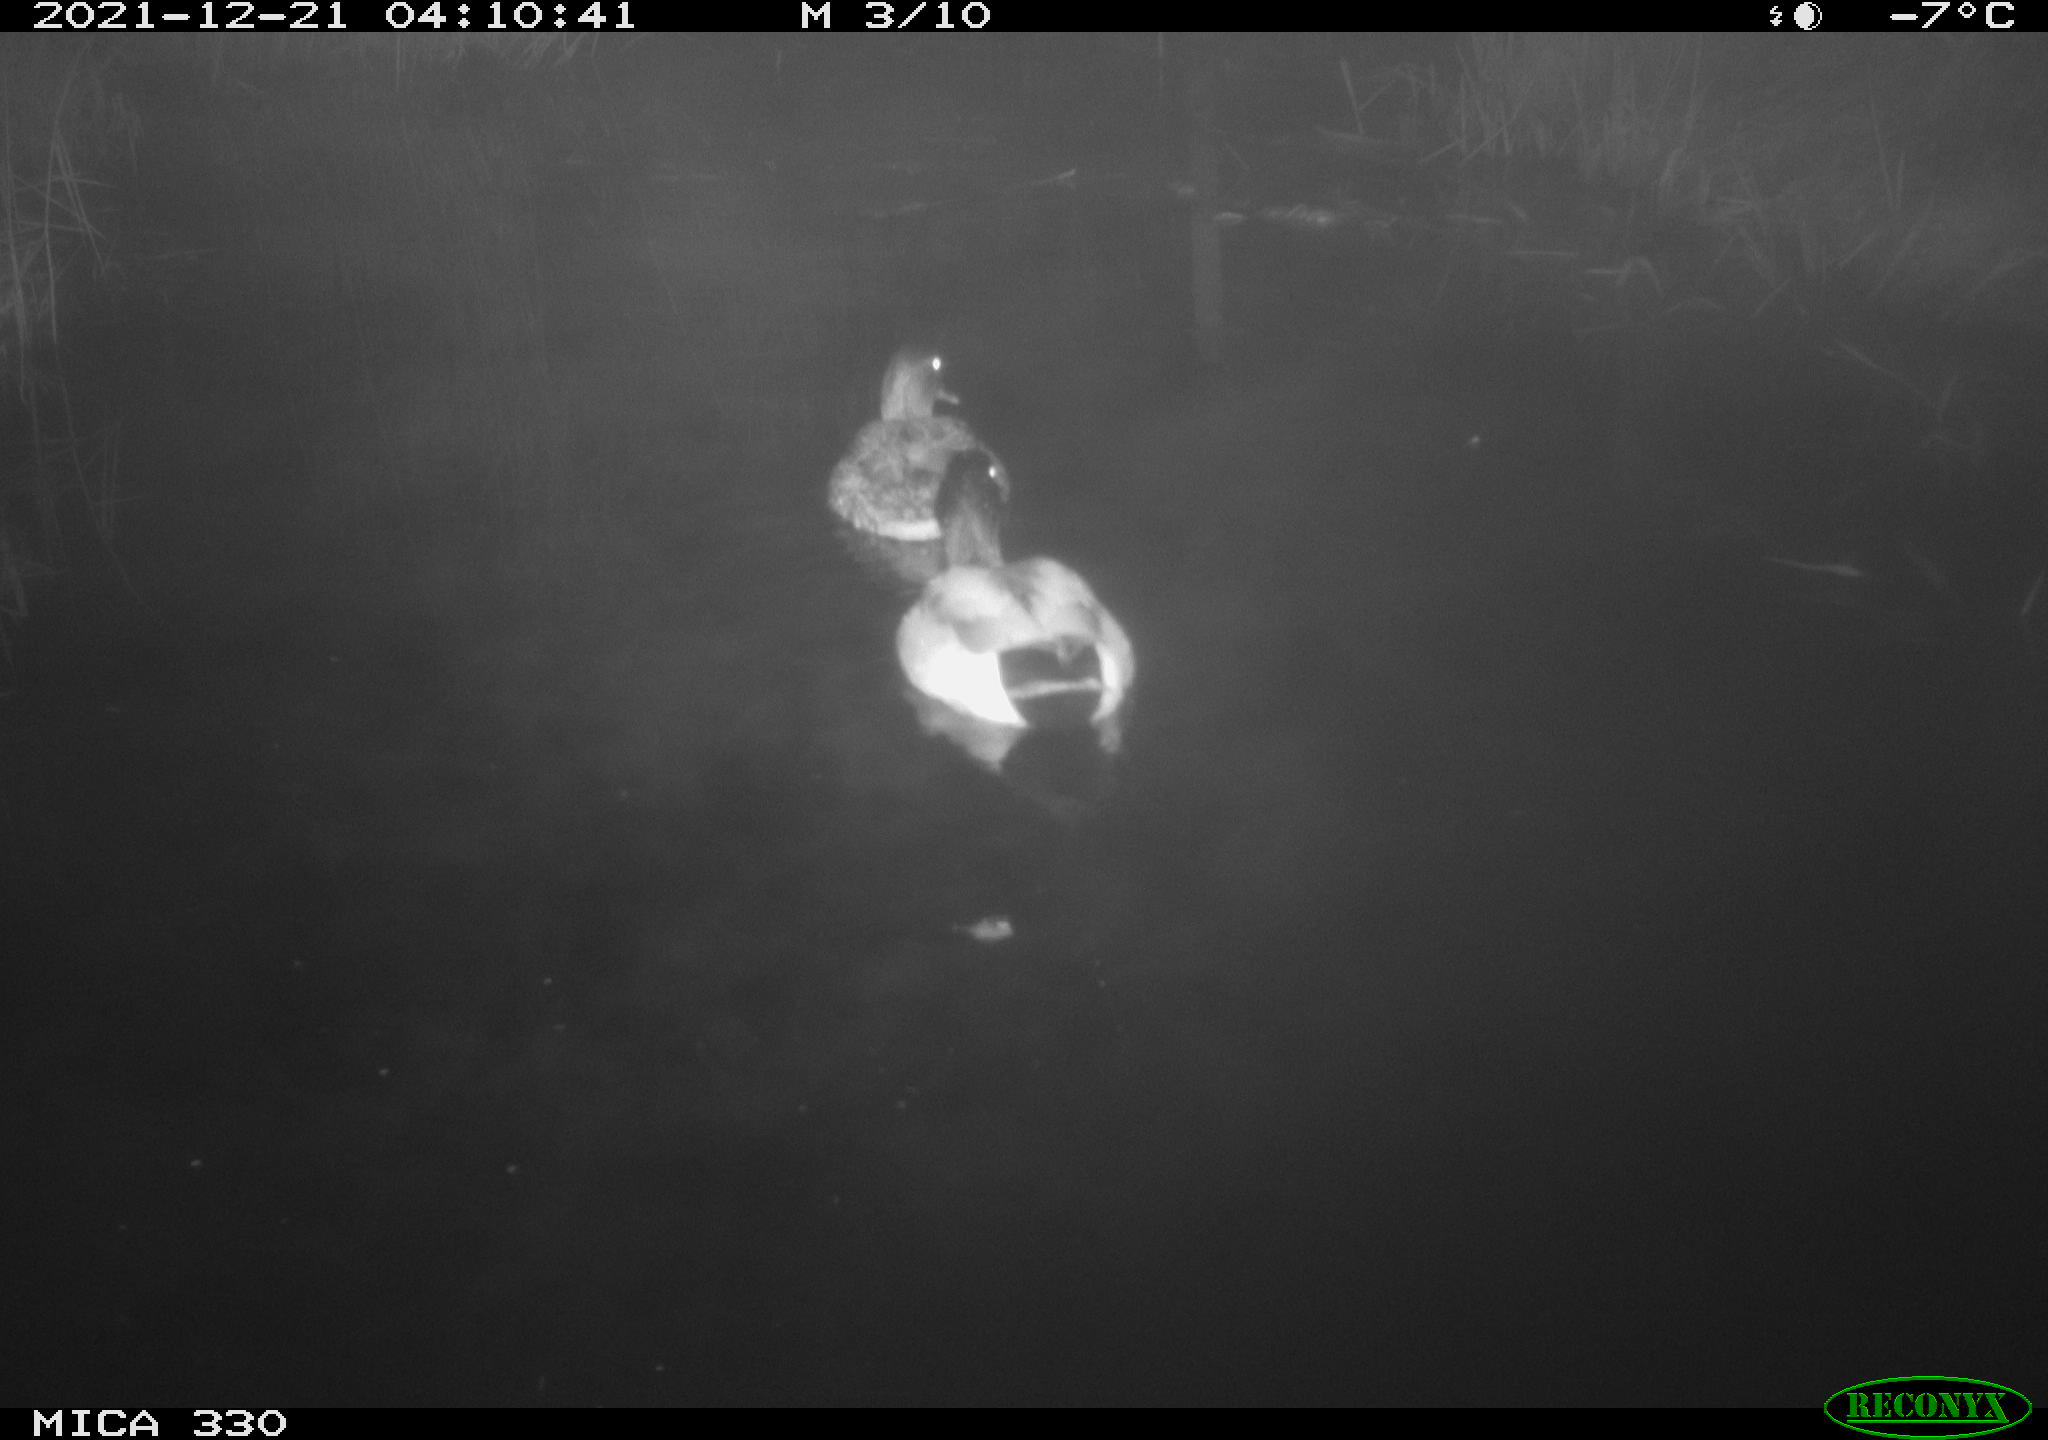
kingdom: Animalia
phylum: Chordata
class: Aves
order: Anseriformes
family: Anatidae
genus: Anas
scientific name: Anas platyrhynchos
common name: Mallard
